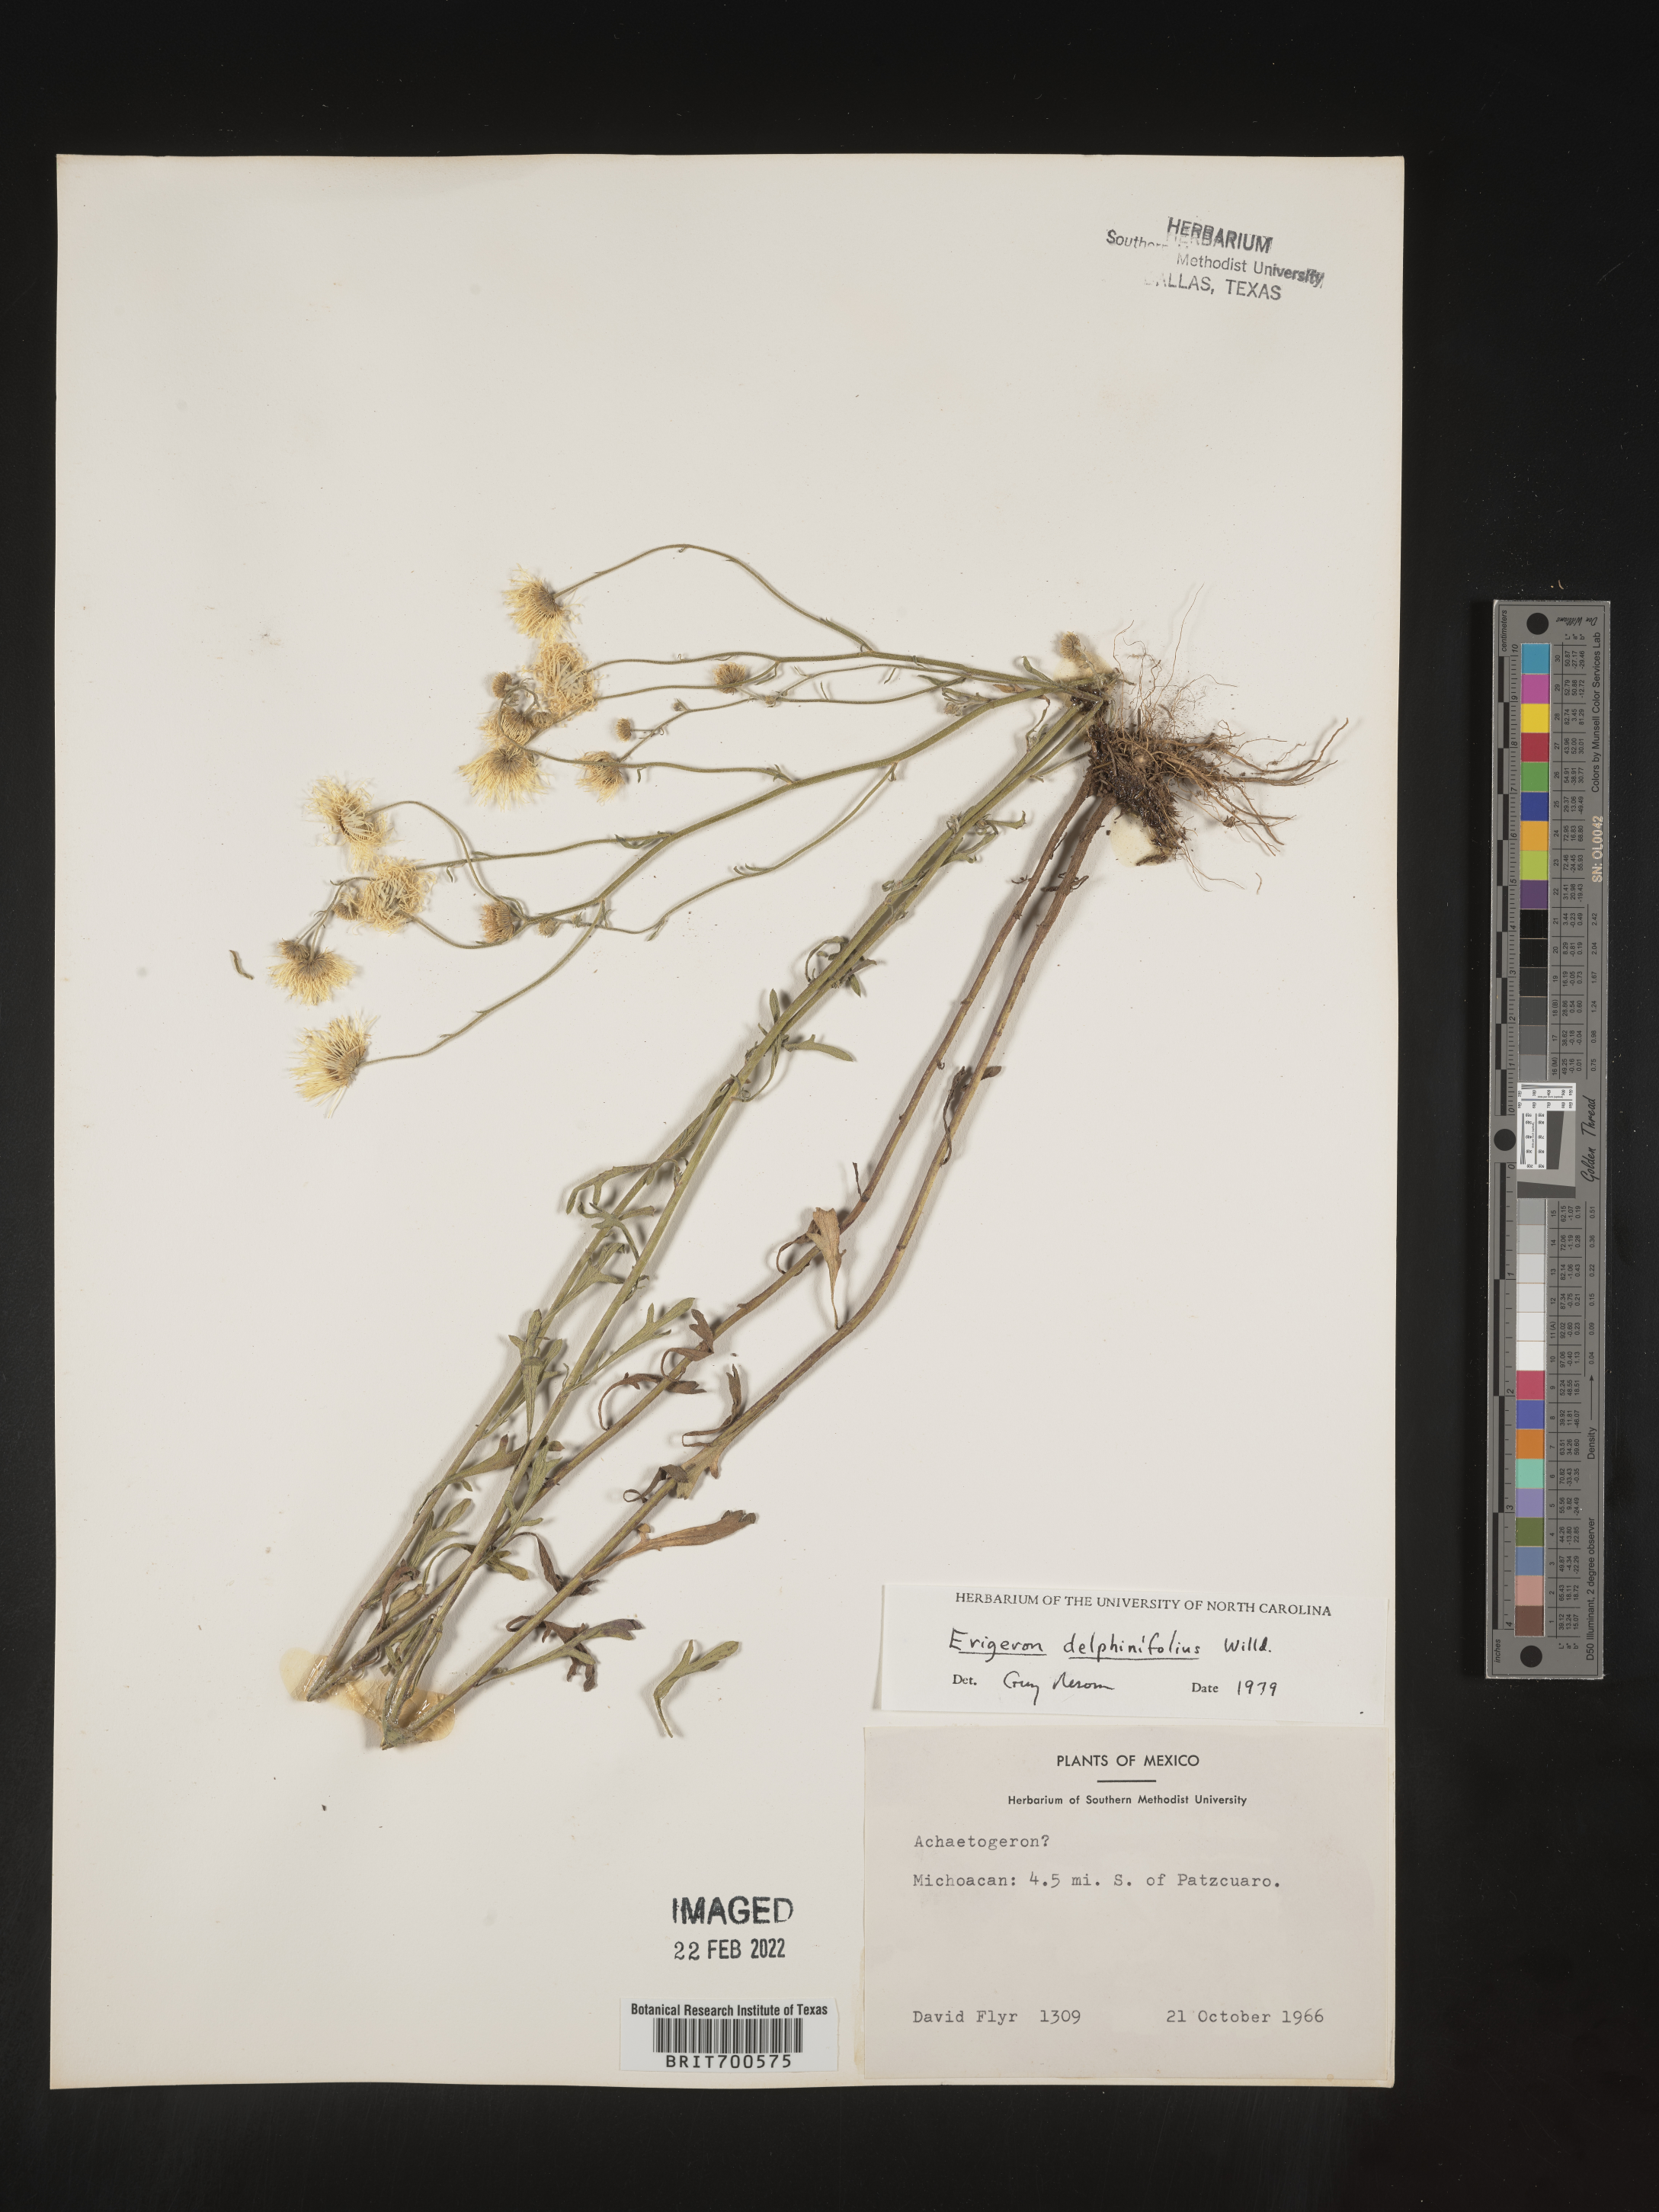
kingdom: Plantae
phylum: Tracheophyta
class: Magnoliopsida
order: Asterales
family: Asteraceae
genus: Erigeron
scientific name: Erigeron delphinifolius
